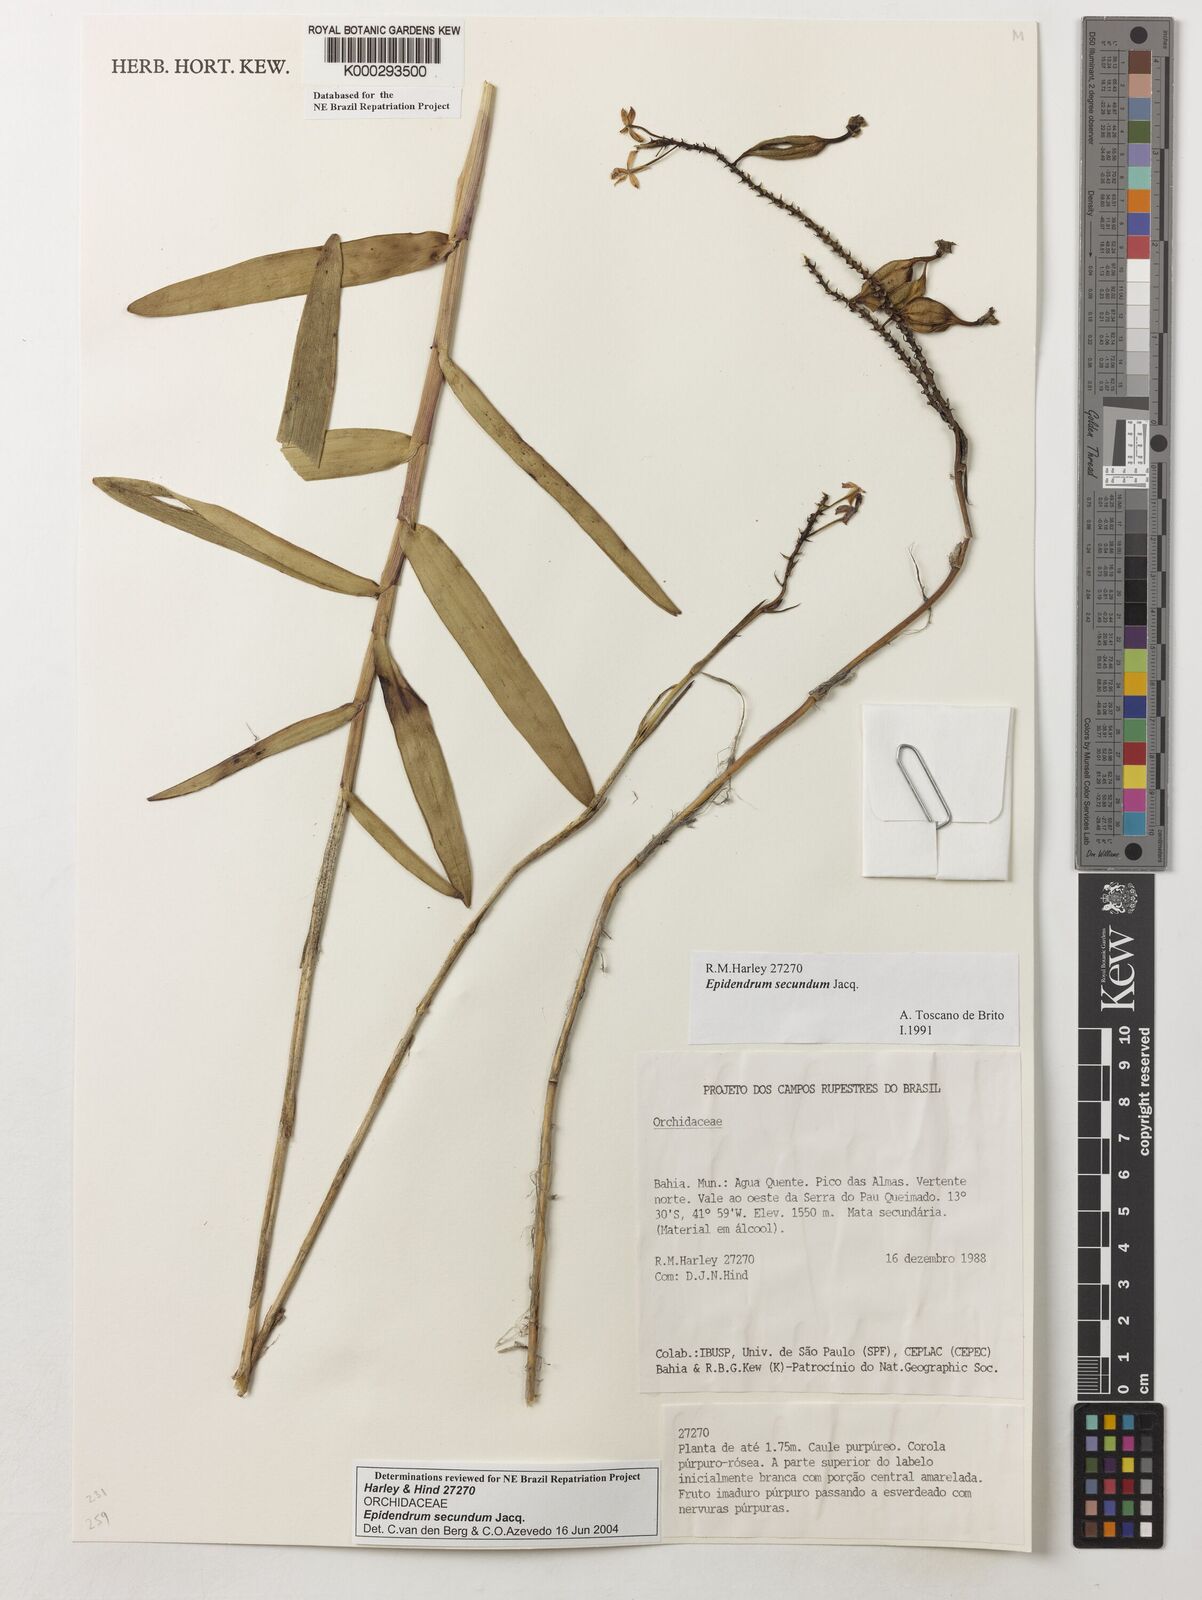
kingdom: Plantae
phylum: Tracheophyta
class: Liliopsida
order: Asparagales
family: Orchidaceae
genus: Epidendrum
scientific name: Epidendrum secundum
